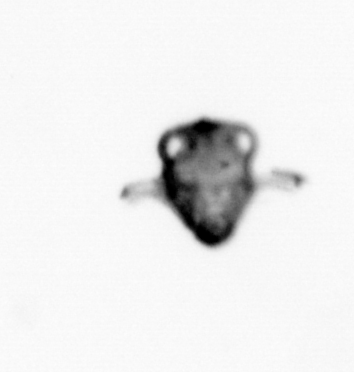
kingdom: Animalia
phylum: Arthropoda
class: Malacostraca
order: Decapoda
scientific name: Decapoda
